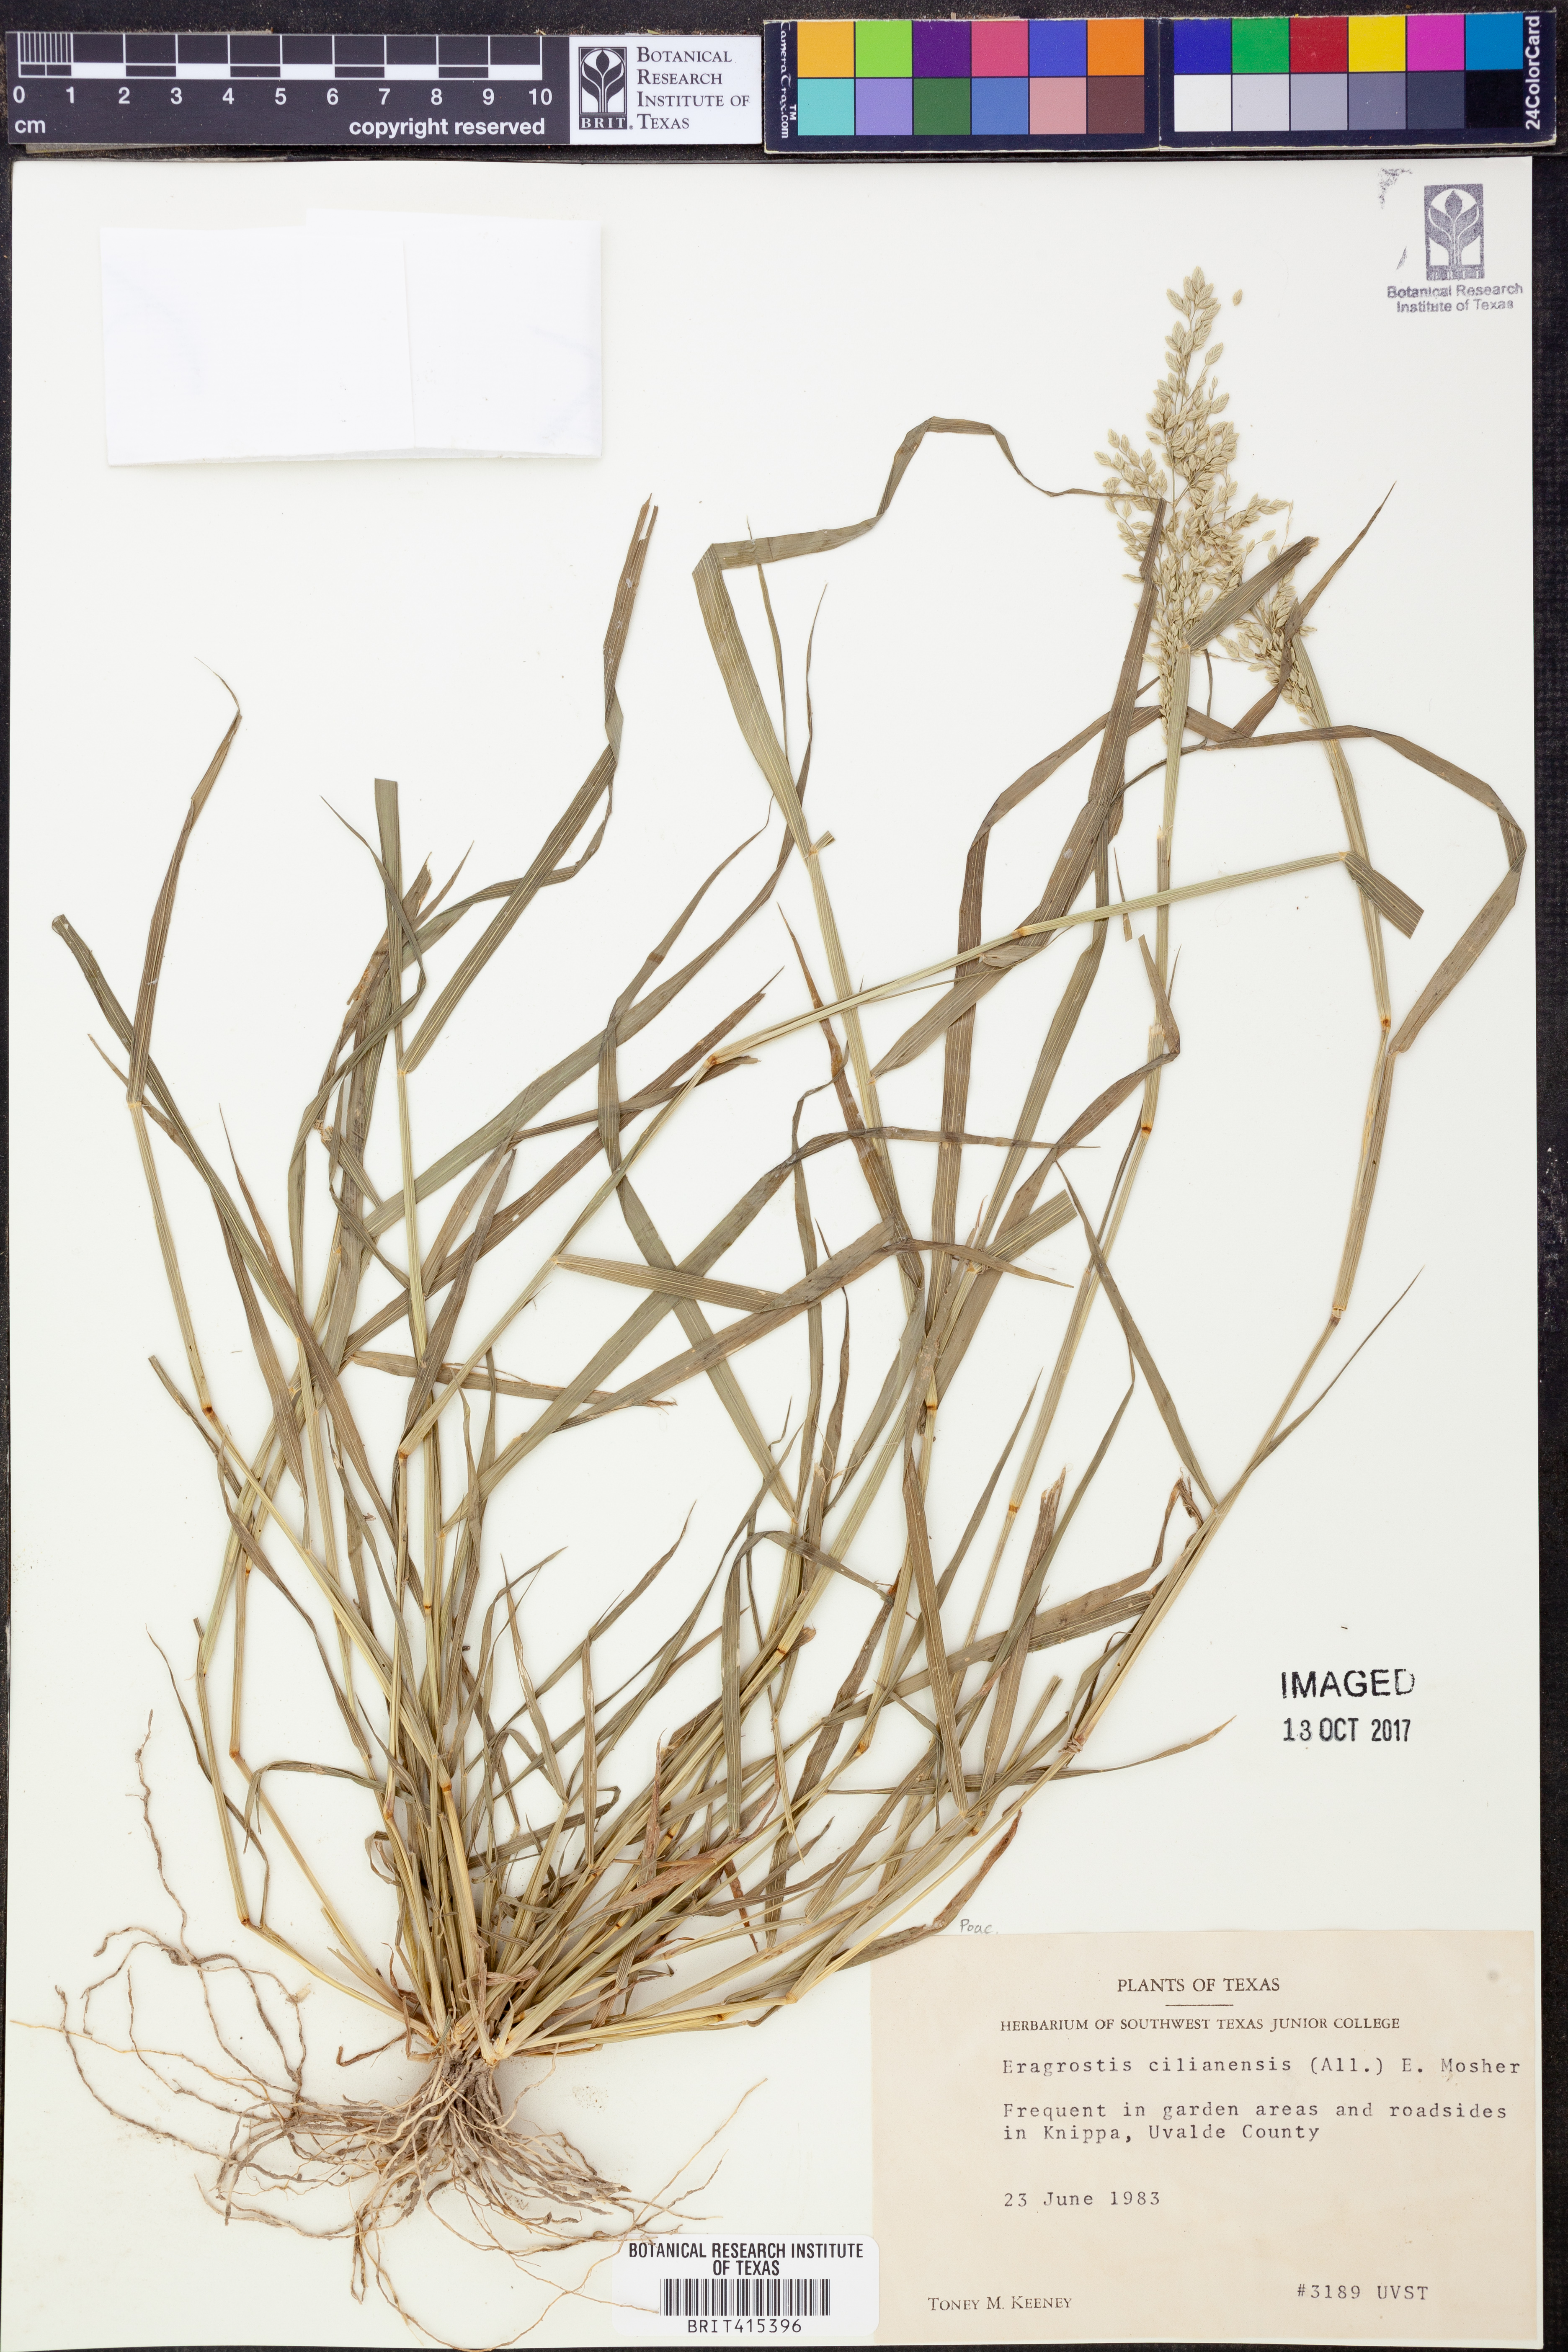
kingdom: Plantae
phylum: Tracheophyta
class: Liliopsida
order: Poales
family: Poaceae
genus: Eragrostis
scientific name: Eragrostis cilianensis
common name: Stinkgrass
